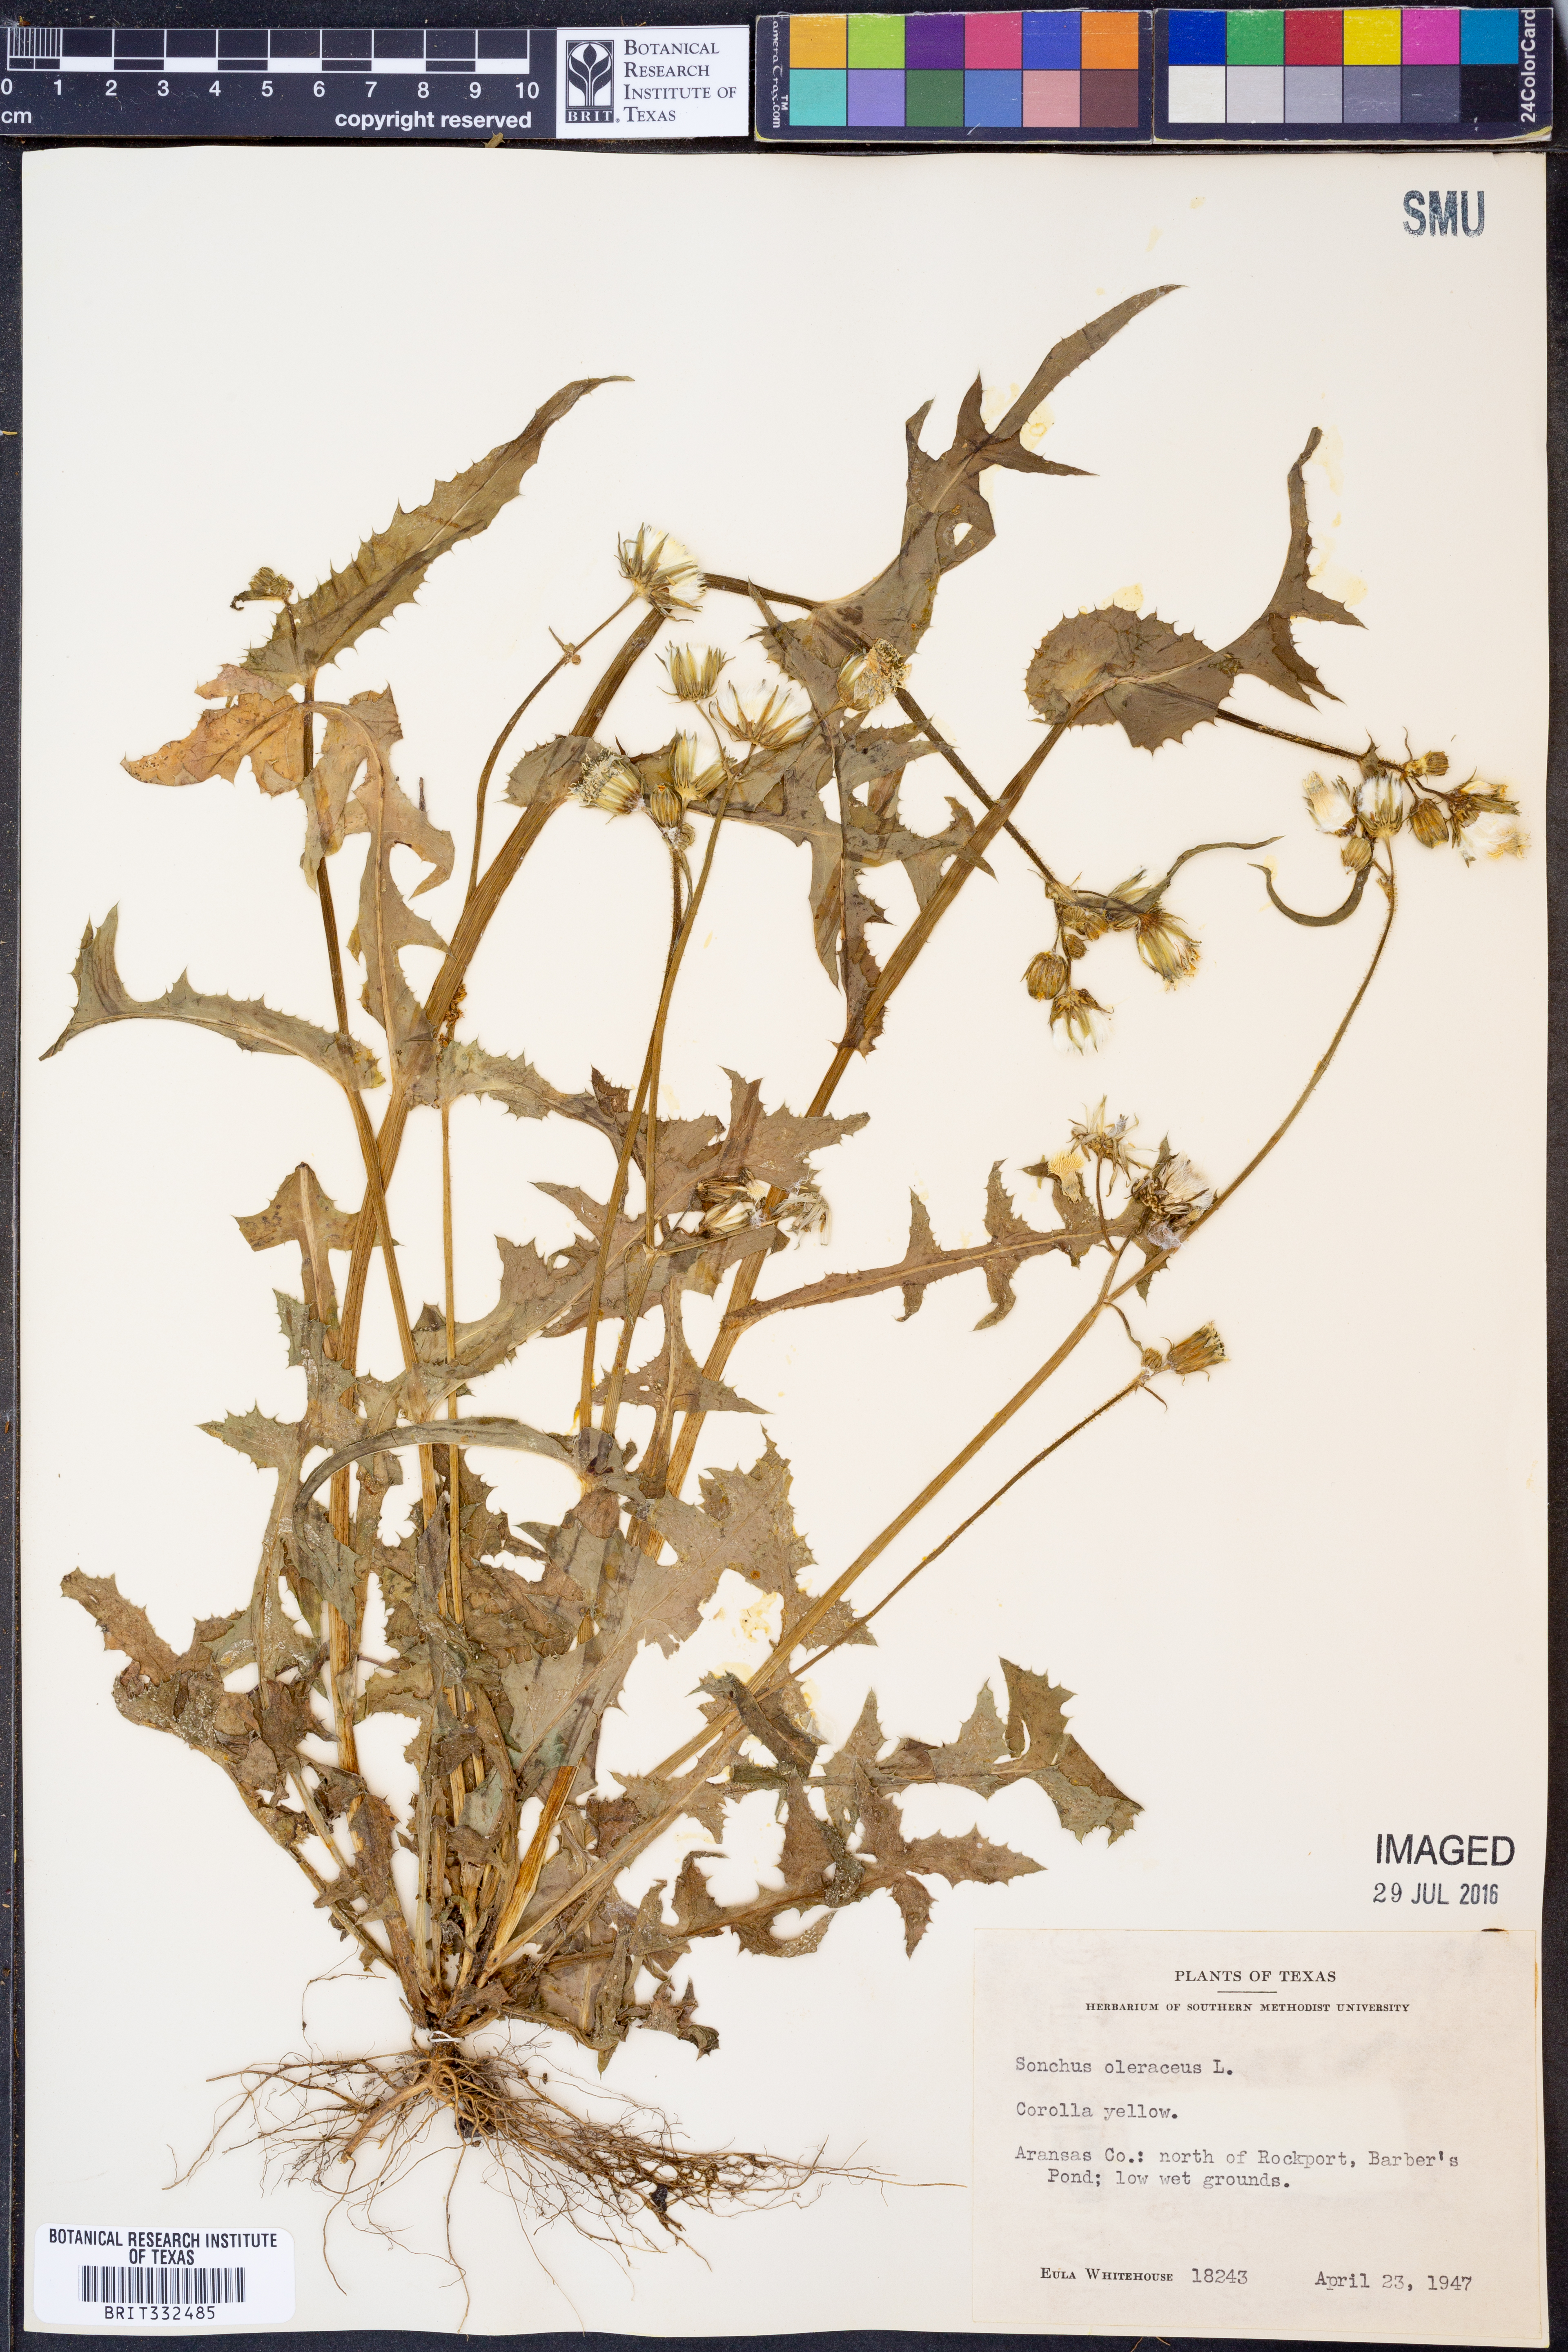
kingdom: Plantae
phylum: Tracheophyta
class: Magnoliopsida
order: Asterales
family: Asteraceae
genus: Sonchus
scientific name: Sonchus oleraceus
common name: Common sowthistle
